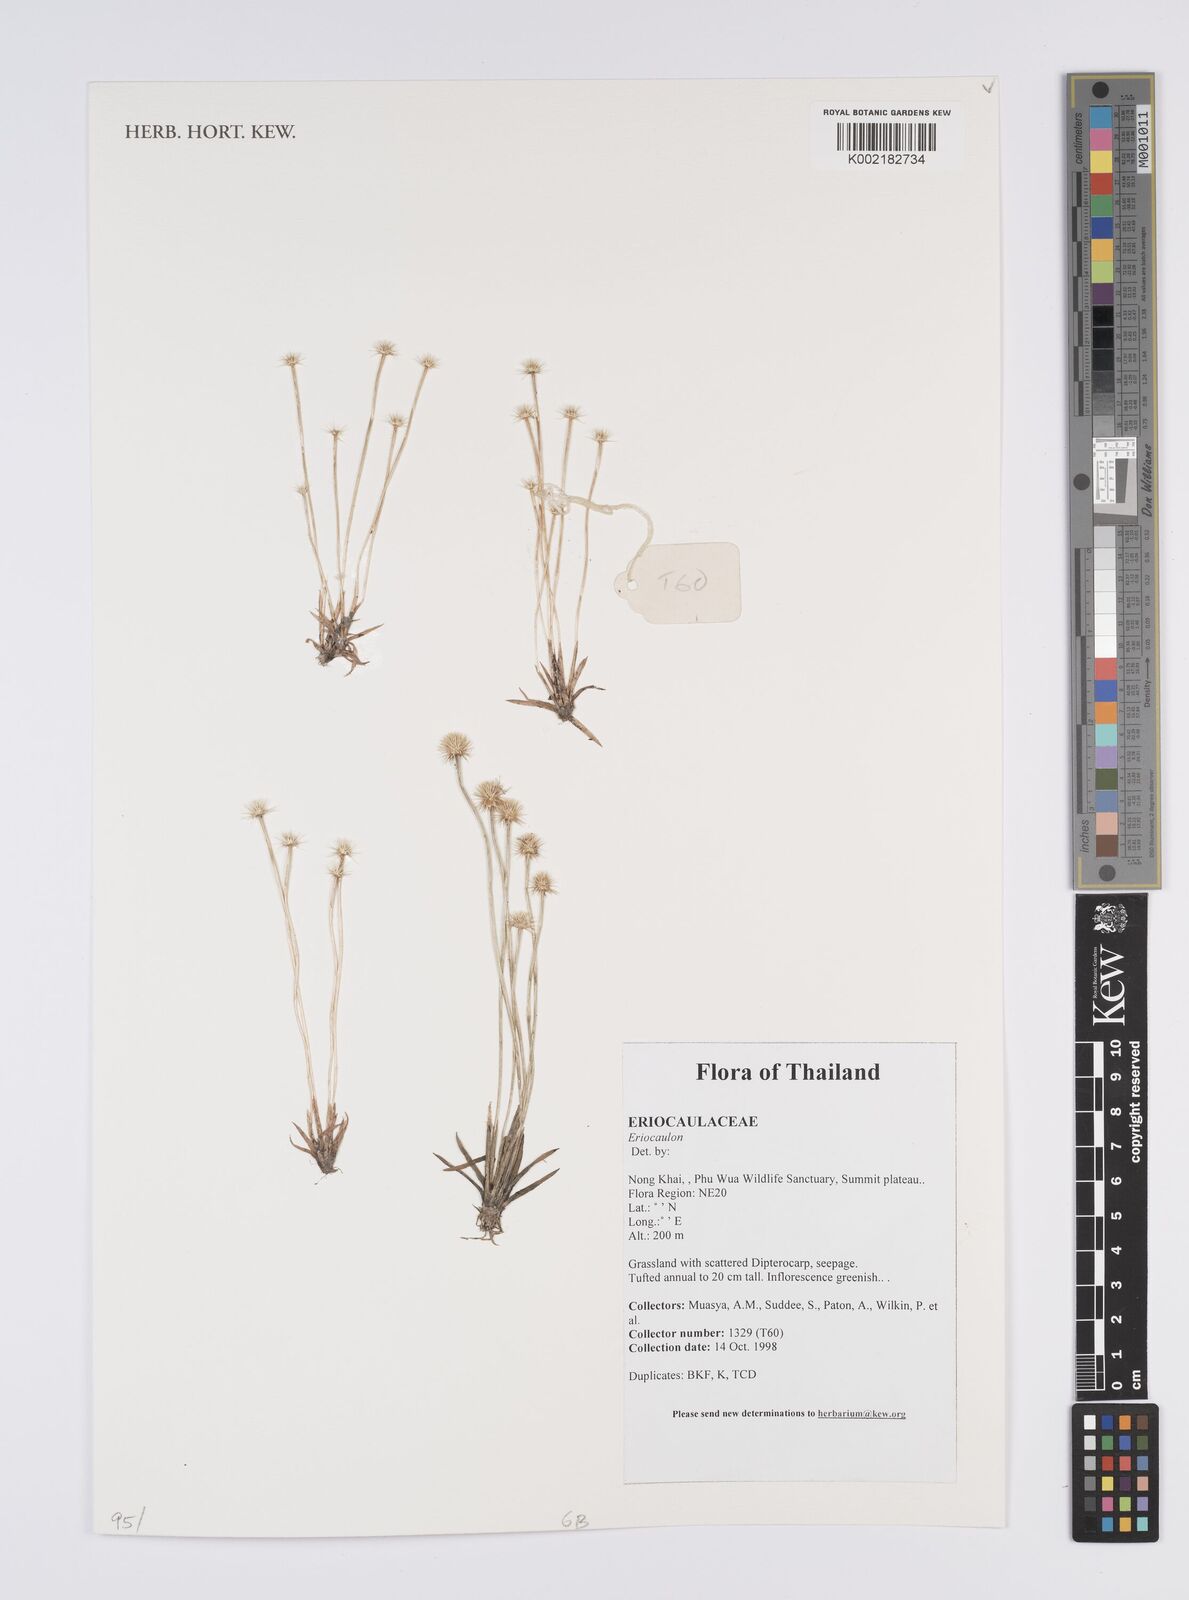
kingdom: Plantae
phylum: Tracheophyta
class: Liliopsida
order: Poales
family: Eriocaulaceae
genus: Eriocaulon
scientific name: Eriocaulon
